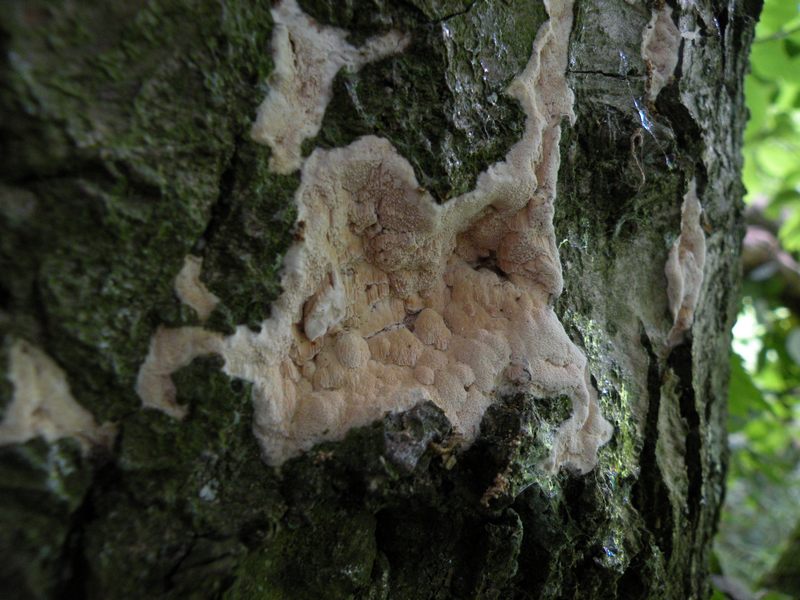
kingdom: Fungi
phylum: Basidiomycota
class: Agaricomycetes
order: Hymenochaetales
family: Schizoporaceae
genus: Xylodon
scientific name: Xylodon flaviporus
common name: gulporet tandsvamp
